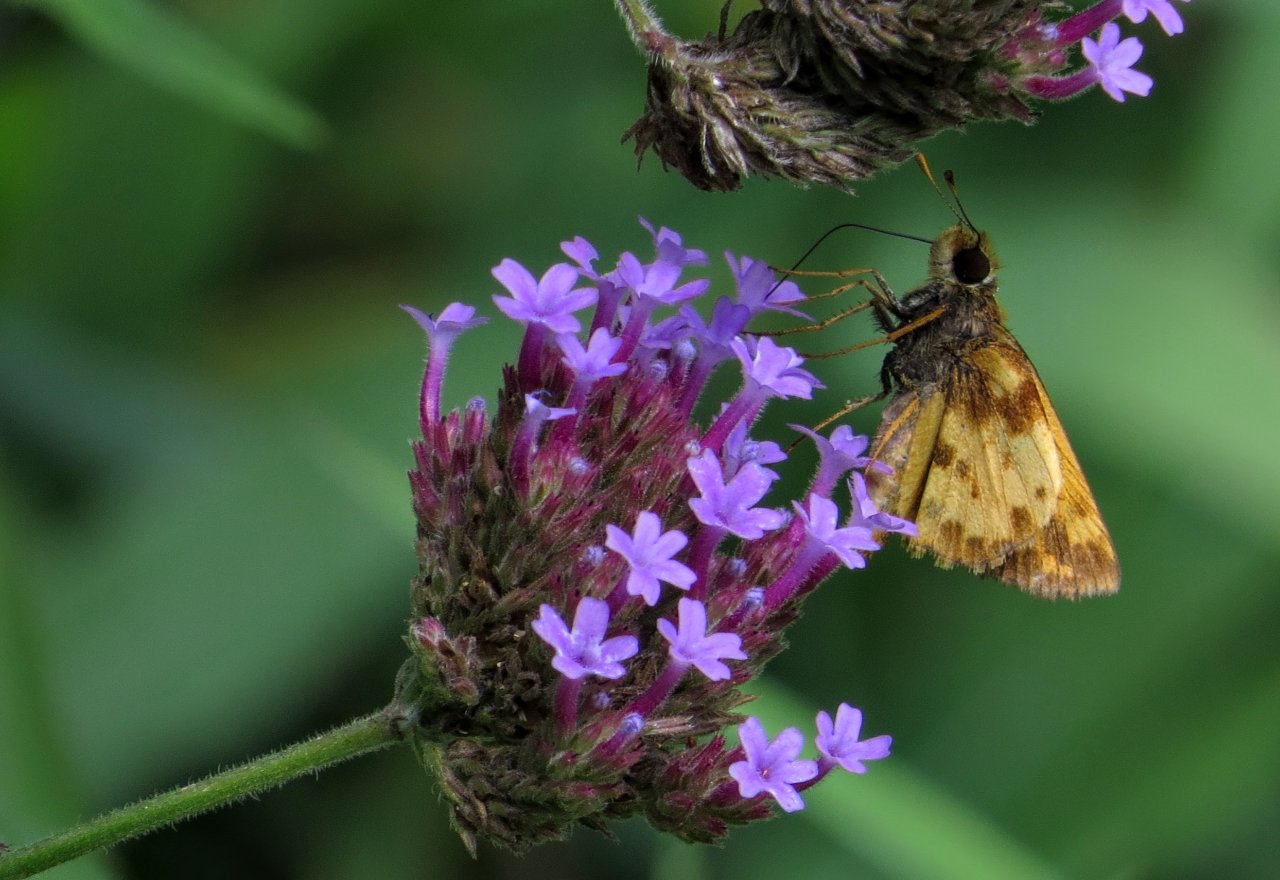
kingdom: Animalia
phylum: Arthropoda
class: Insecta
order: Lepidoptera
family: Hesperiidae
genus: Lon
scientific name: Lon zabulon
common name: Zabulon Skipper
